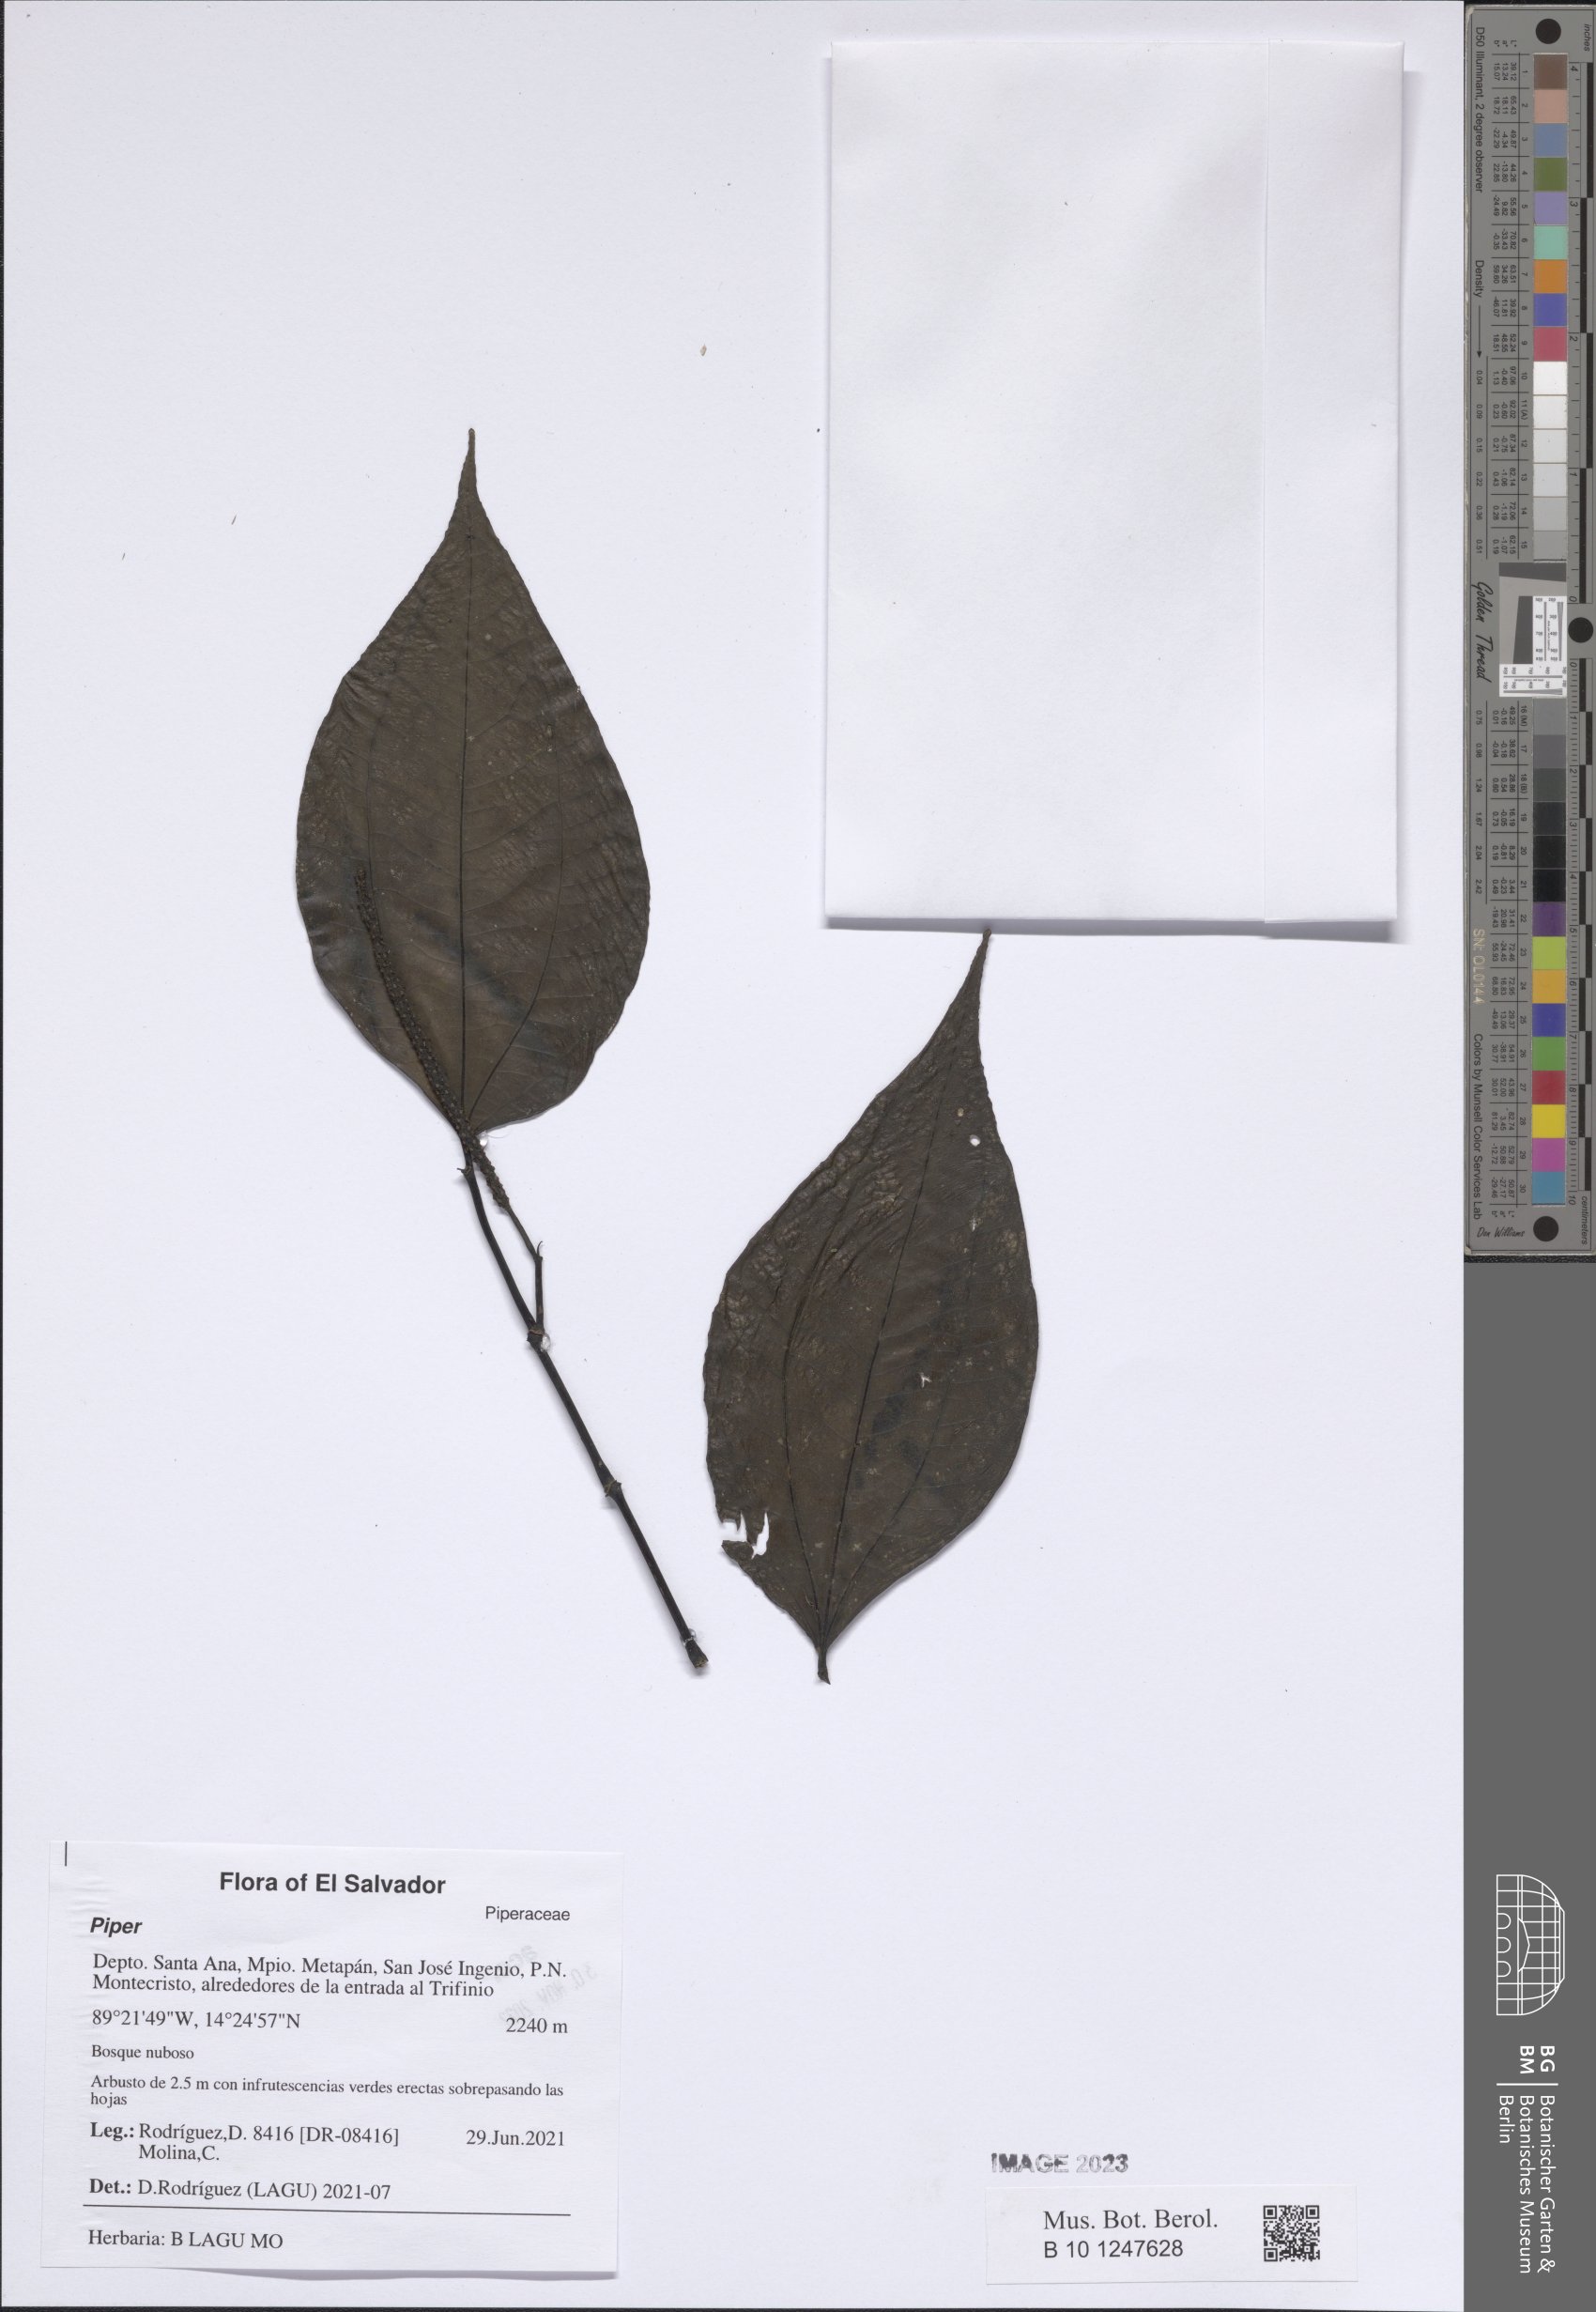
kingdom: Plantae
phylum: Tracheophyta
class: Magnoliopsida
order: Piperales
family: Piperaceae
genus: Piper
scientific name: Piper
